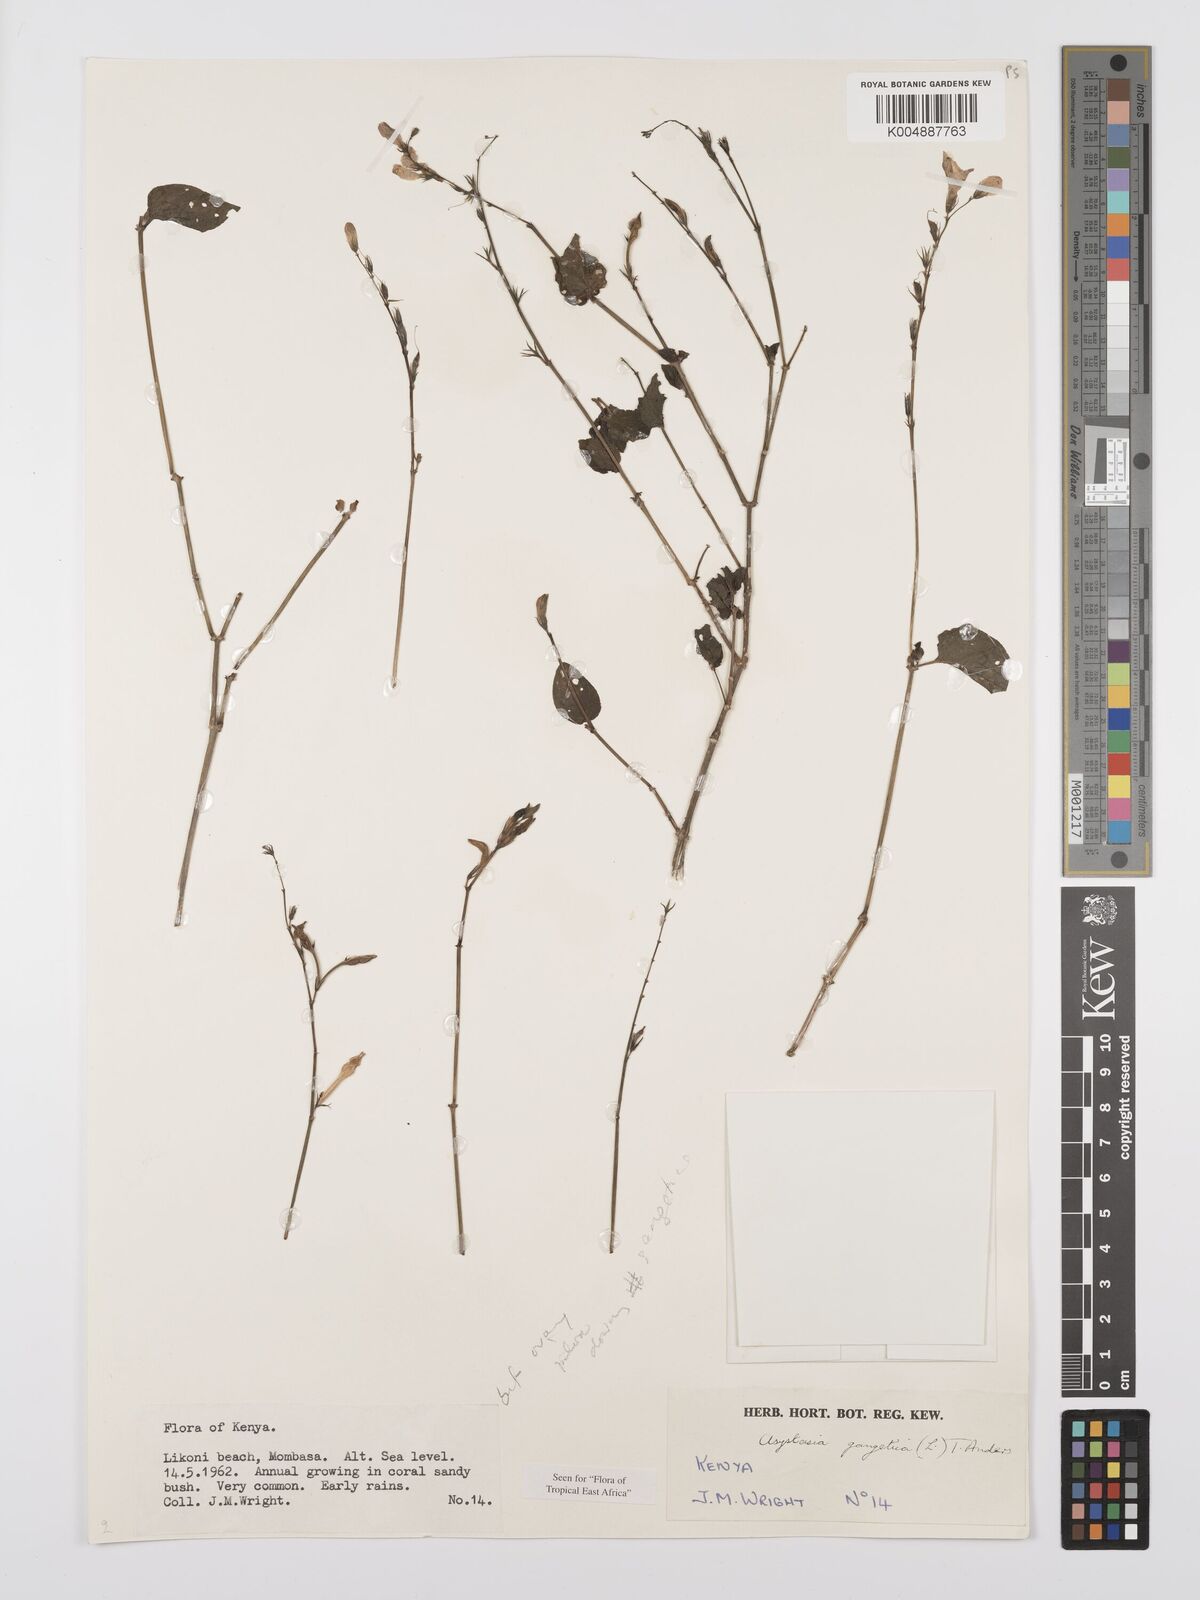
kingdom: Plantae
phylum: Tracheophyta
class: Magnoliopsida
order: Lamiales
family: Acanthaceae
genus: Asystasia
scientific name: Asystasia gangetica
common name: Chinese violet
